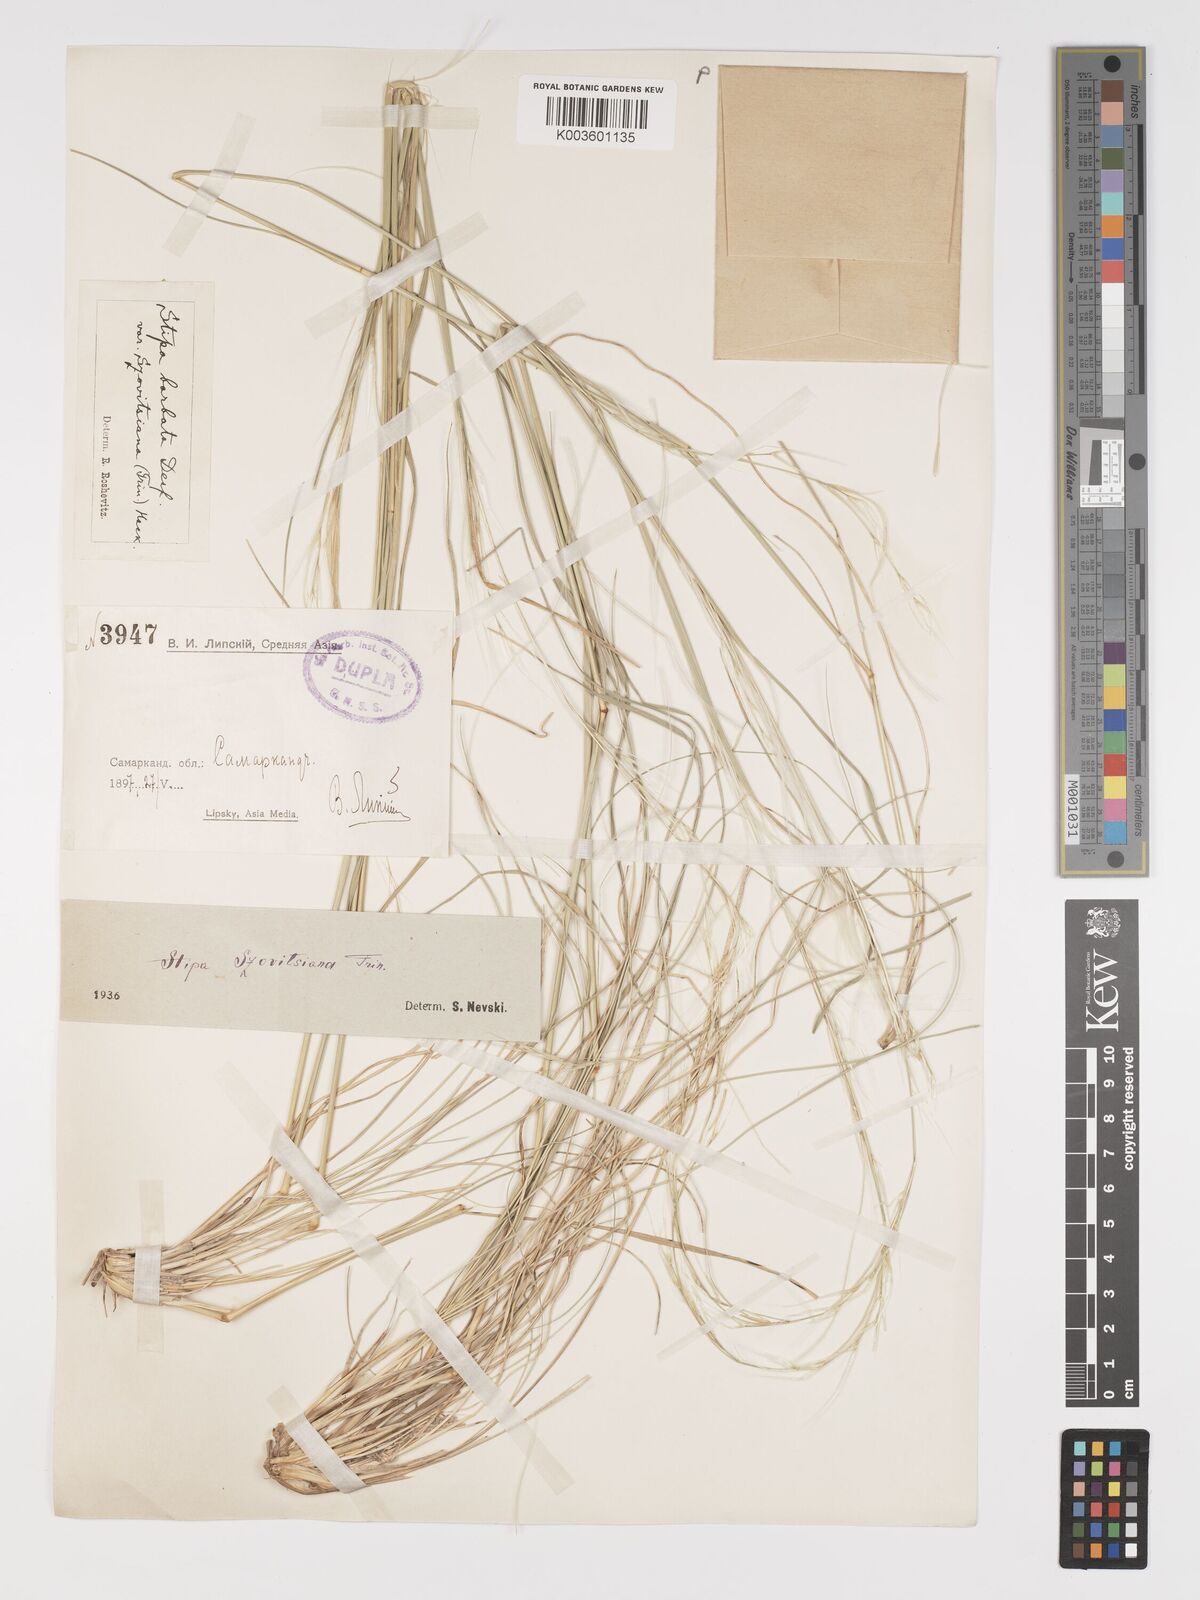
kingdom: Plantae
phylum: Tracheophyta
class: Liliopsida
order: Poales
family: Poaceae
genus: Stipa
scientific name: Stipa arabica
